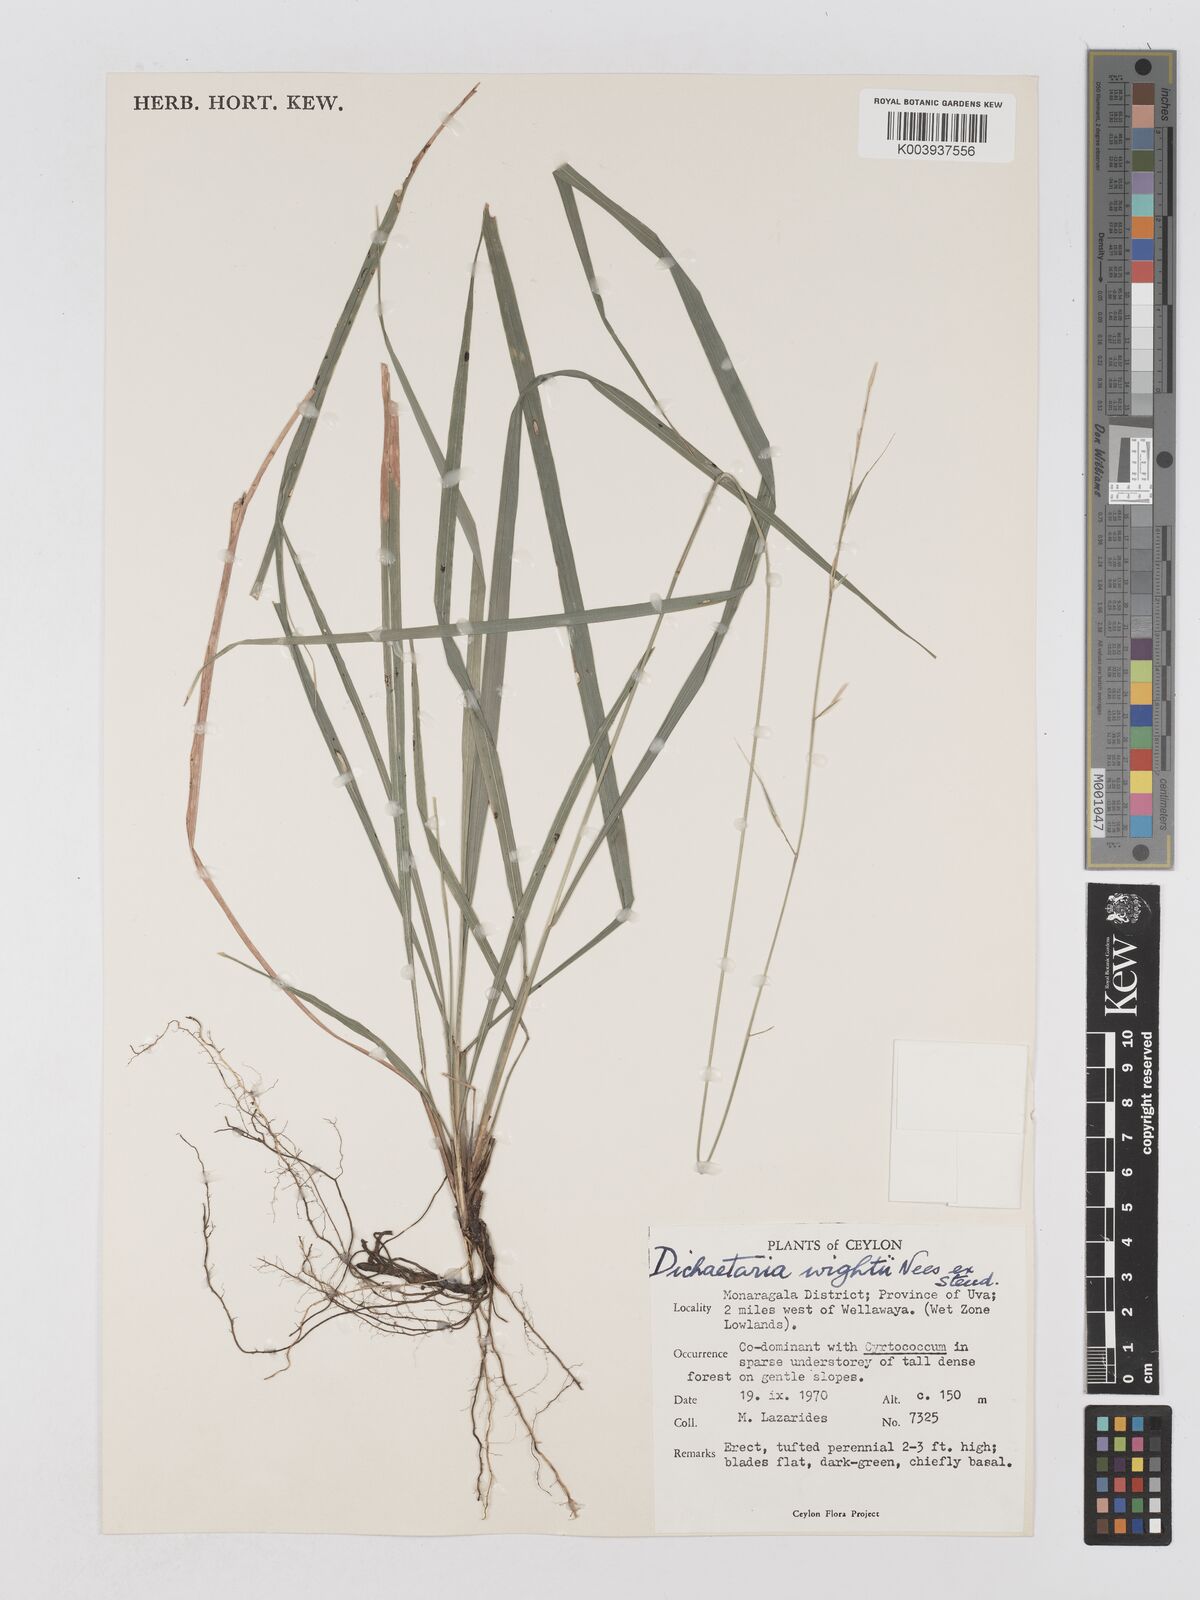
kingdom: Plantae
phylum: Tracheophyta
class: Liliopsida
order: Poales
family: Poaceae
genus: Dichaetaria
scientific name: Dichaetaria wightii
